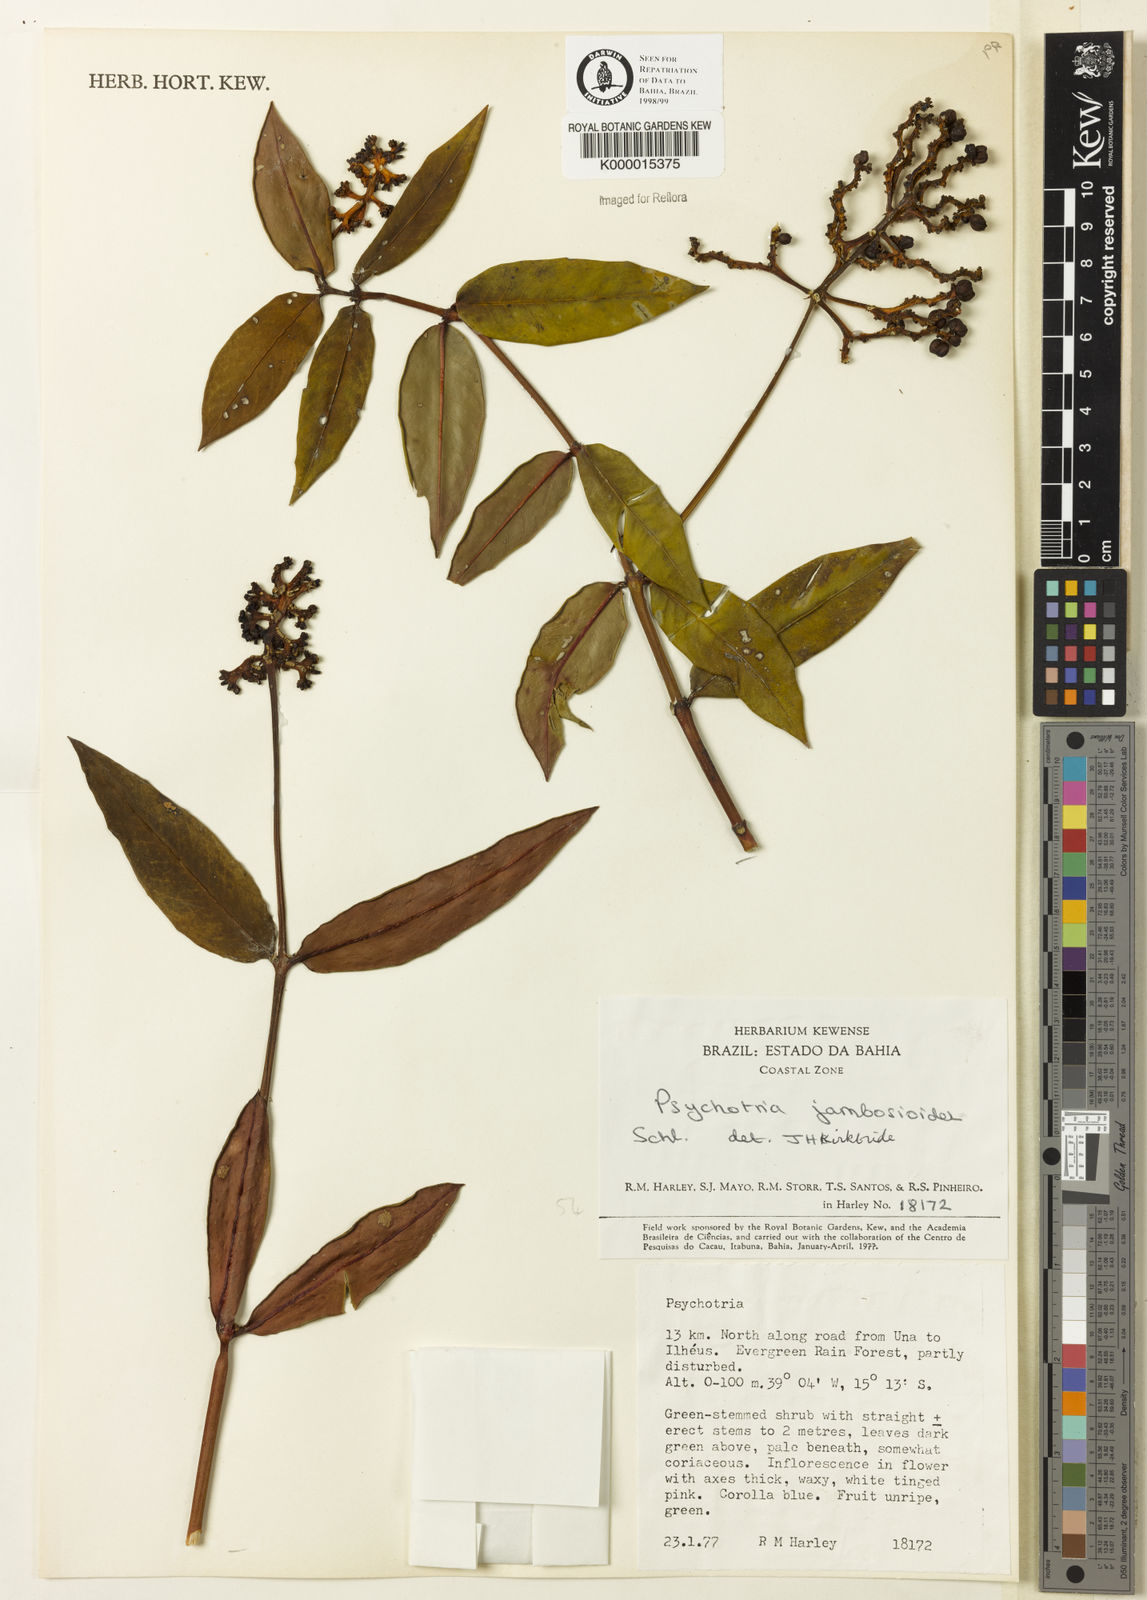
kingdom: Plantae
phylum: Tracheophyta
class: Magnoliopsida
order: Gentianales
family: Rubiaceae
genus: Palicourea
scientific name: Palicourea jambosioides
